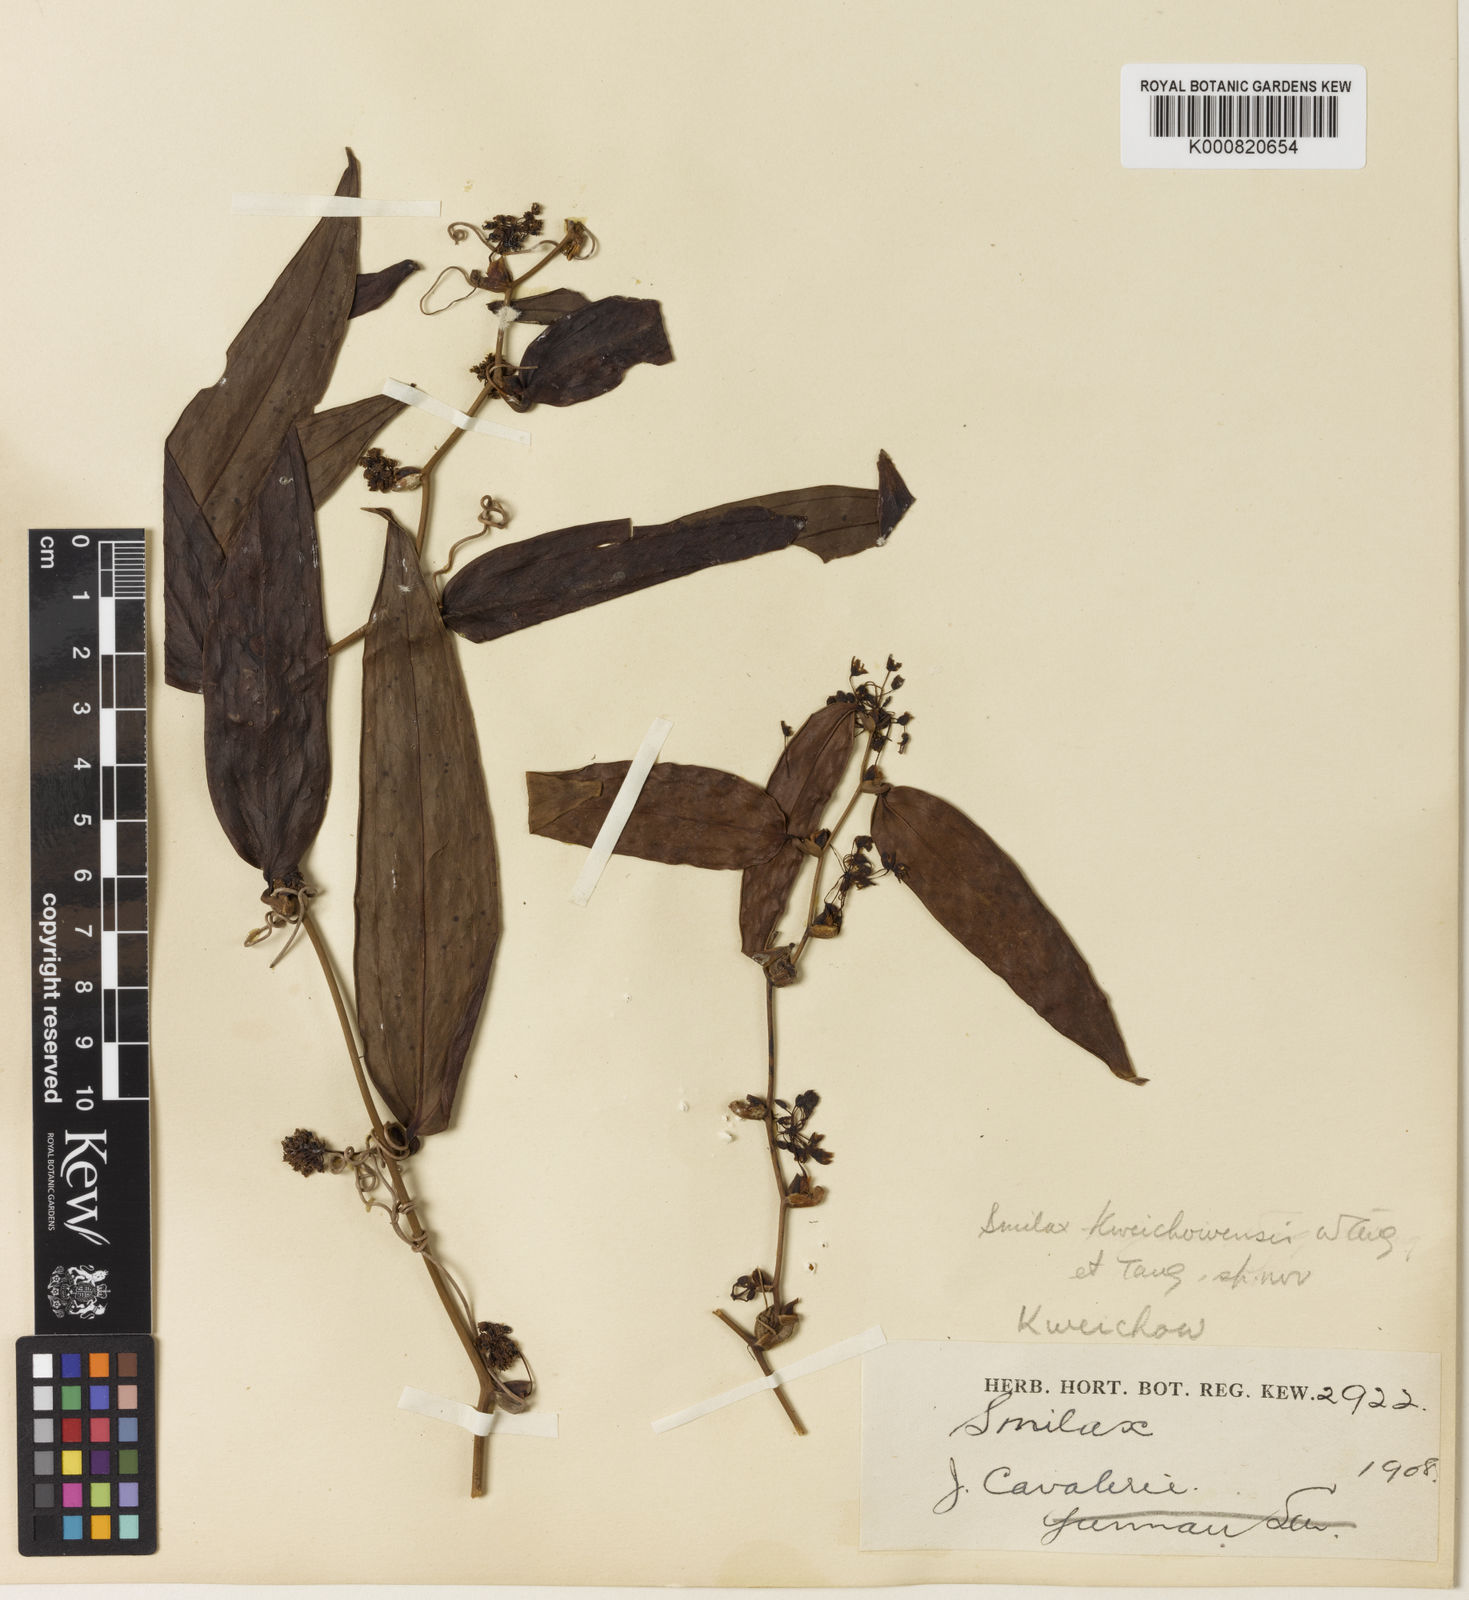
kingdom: Plantae
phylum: Tracheophyta
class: Liliopsida
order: Liliales
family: Smilacaceae
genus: Smilax
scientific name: Smilax
